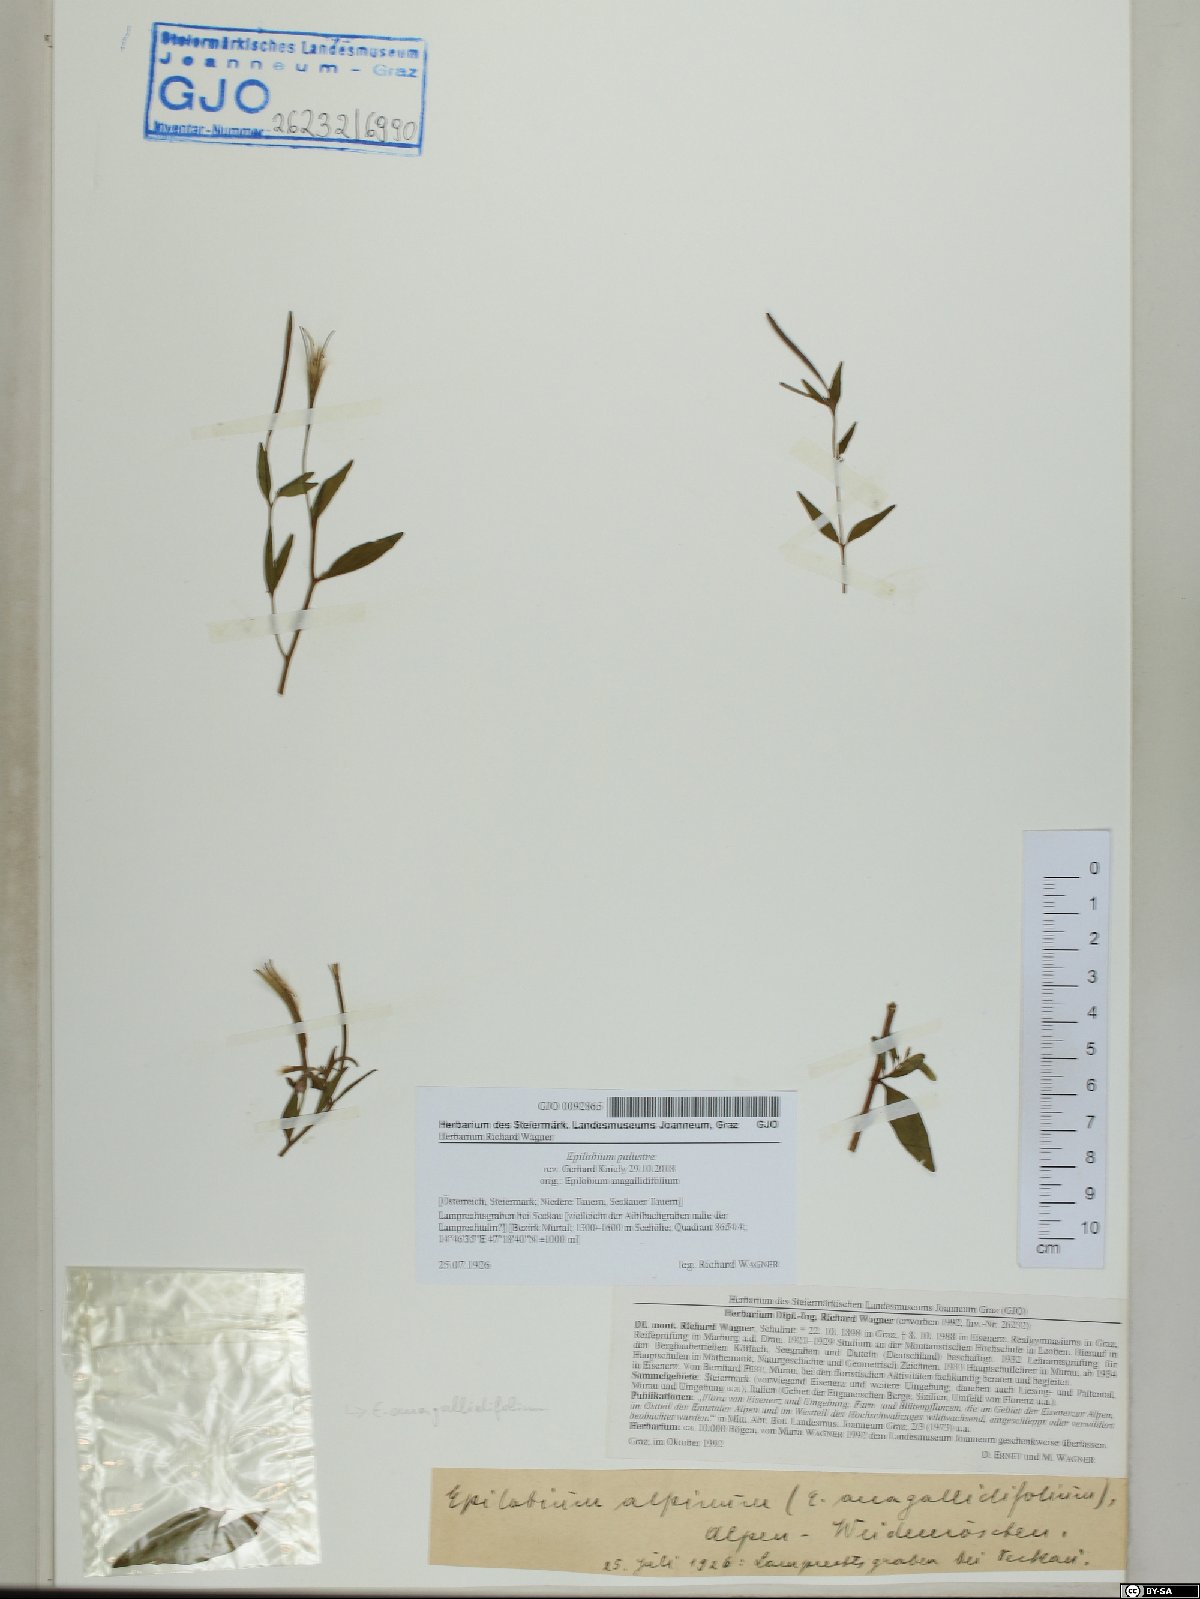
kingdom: Plantae
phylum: Tracheophyta
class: Magnoliopsida
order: Myrtales
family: Onagraceae
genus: Epilobium
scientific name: Epilobium palustre
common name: Marsh willowherb
